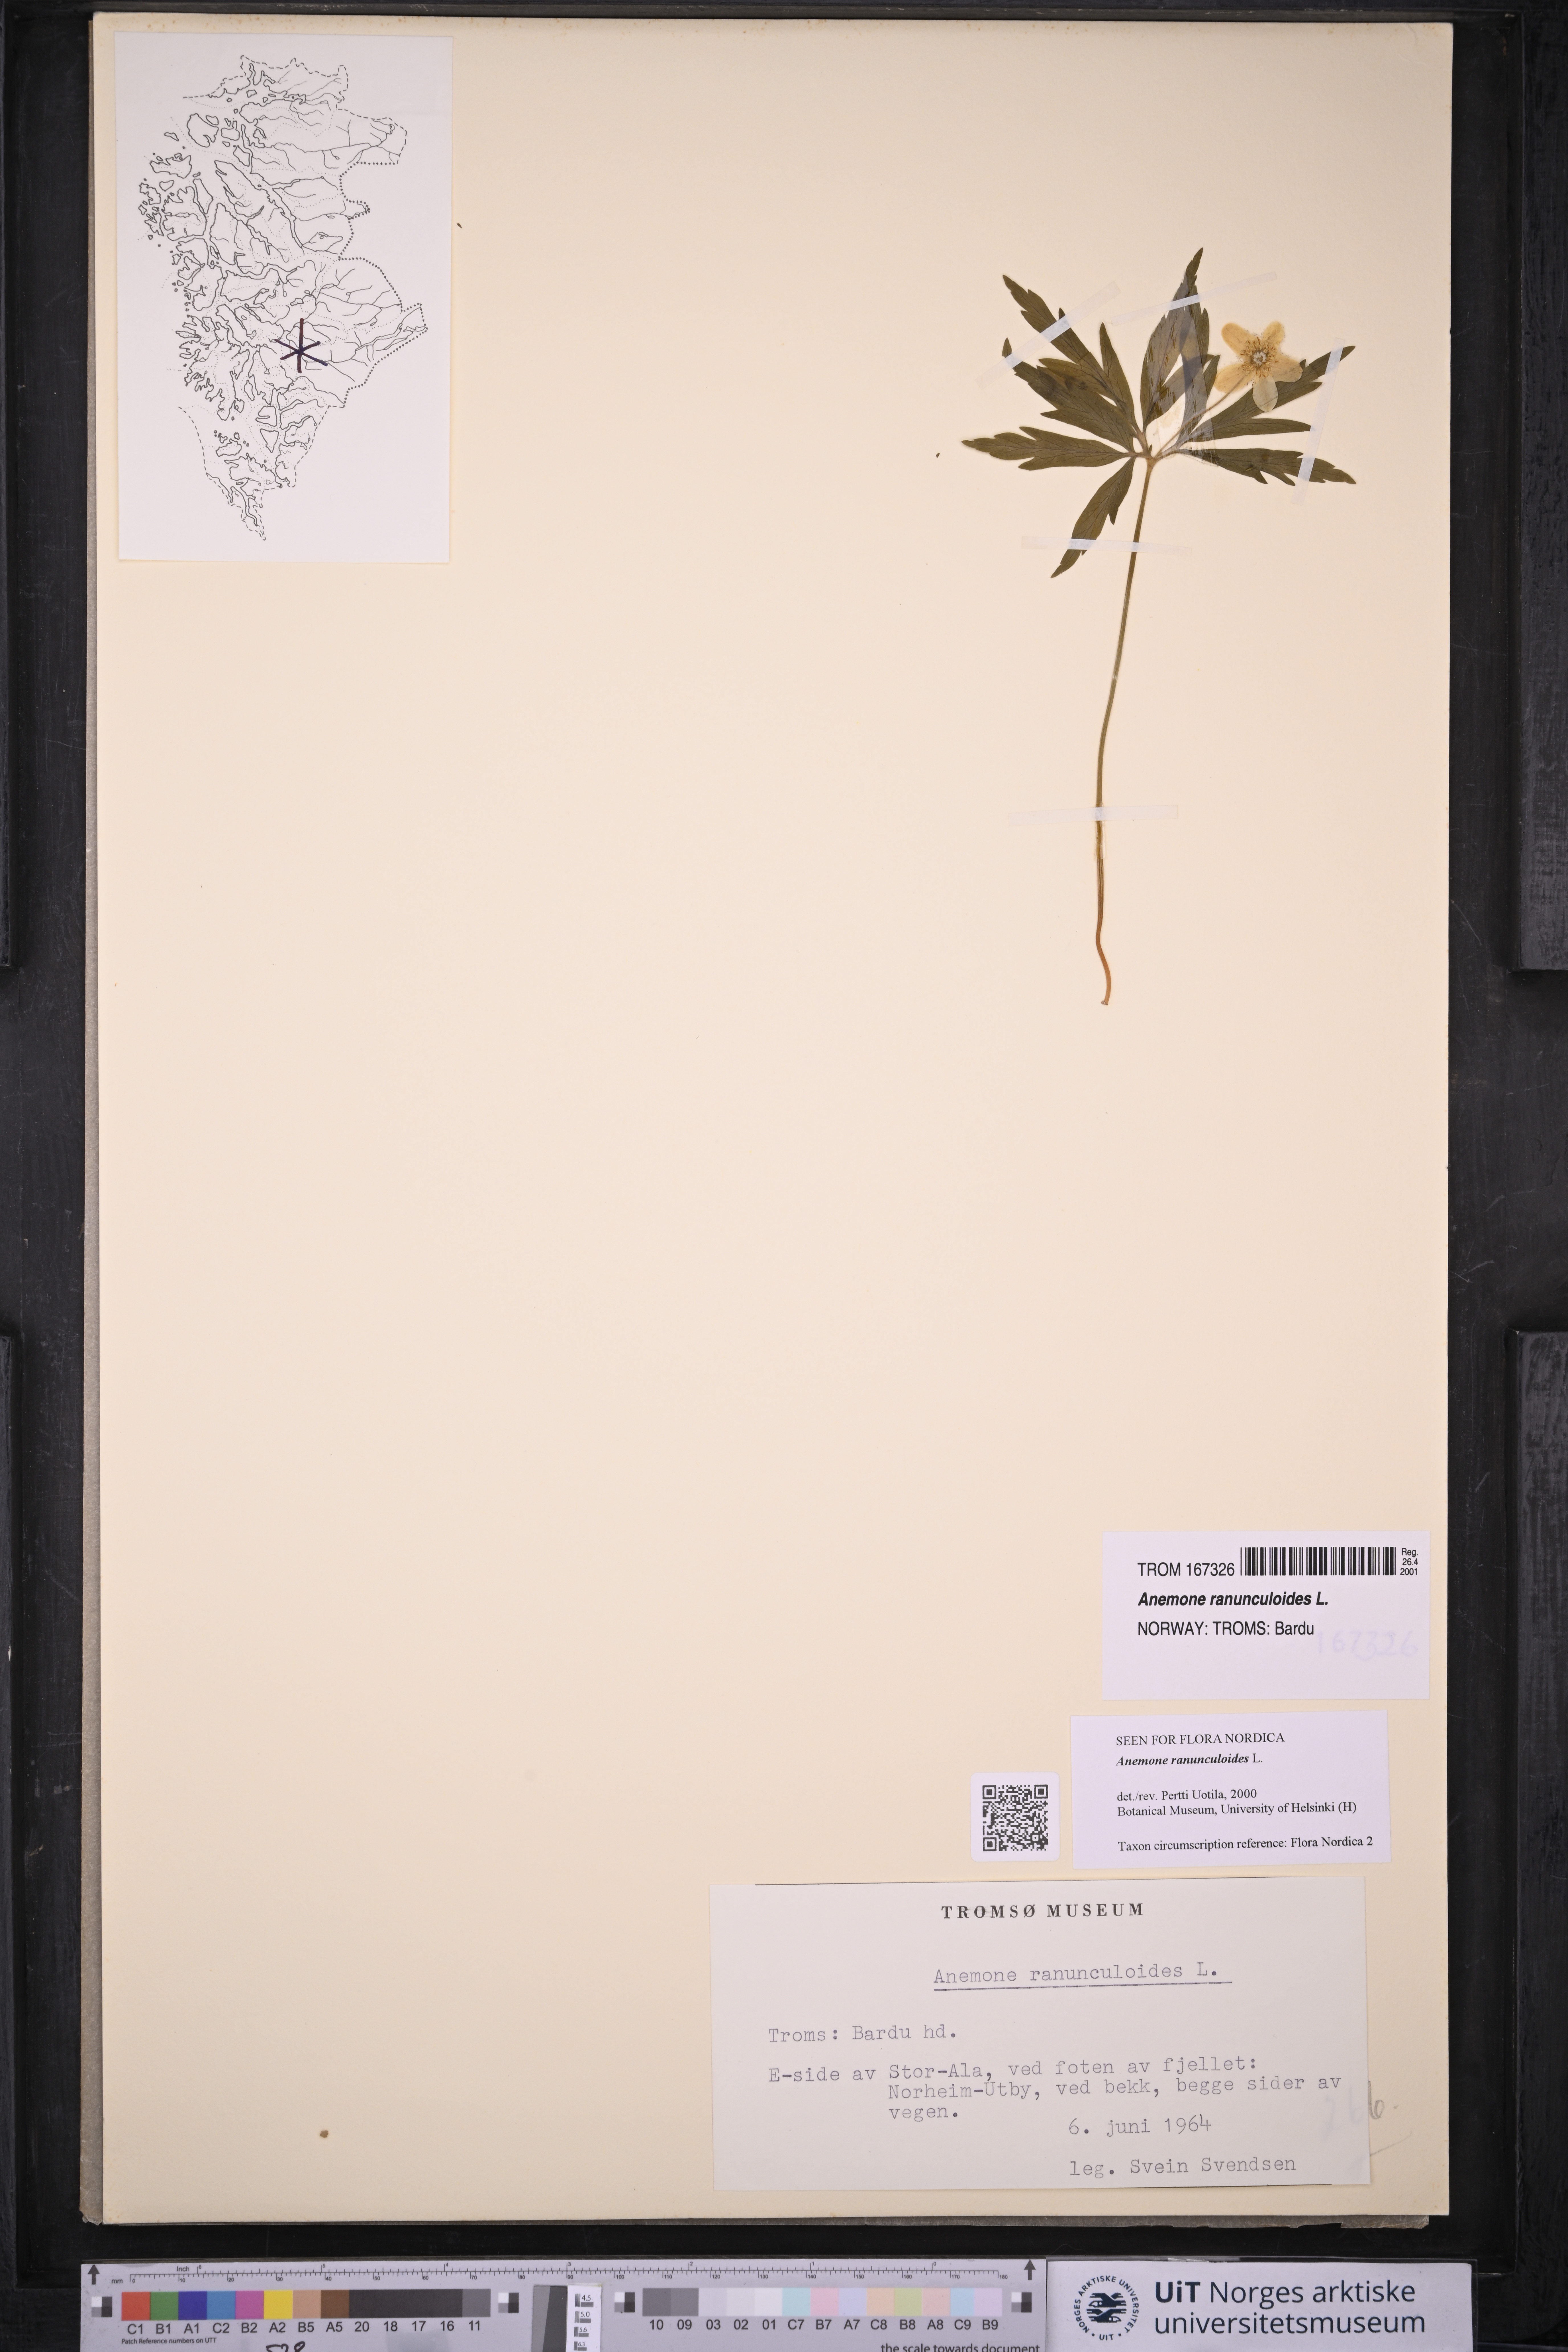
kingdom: Plantae
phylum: Tracheophyta
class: Magnoliopsida
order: Ranunculales
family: Ranunculaceae
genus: Anemone
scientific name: Anemone ranunculoides
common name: Yellow anemone
